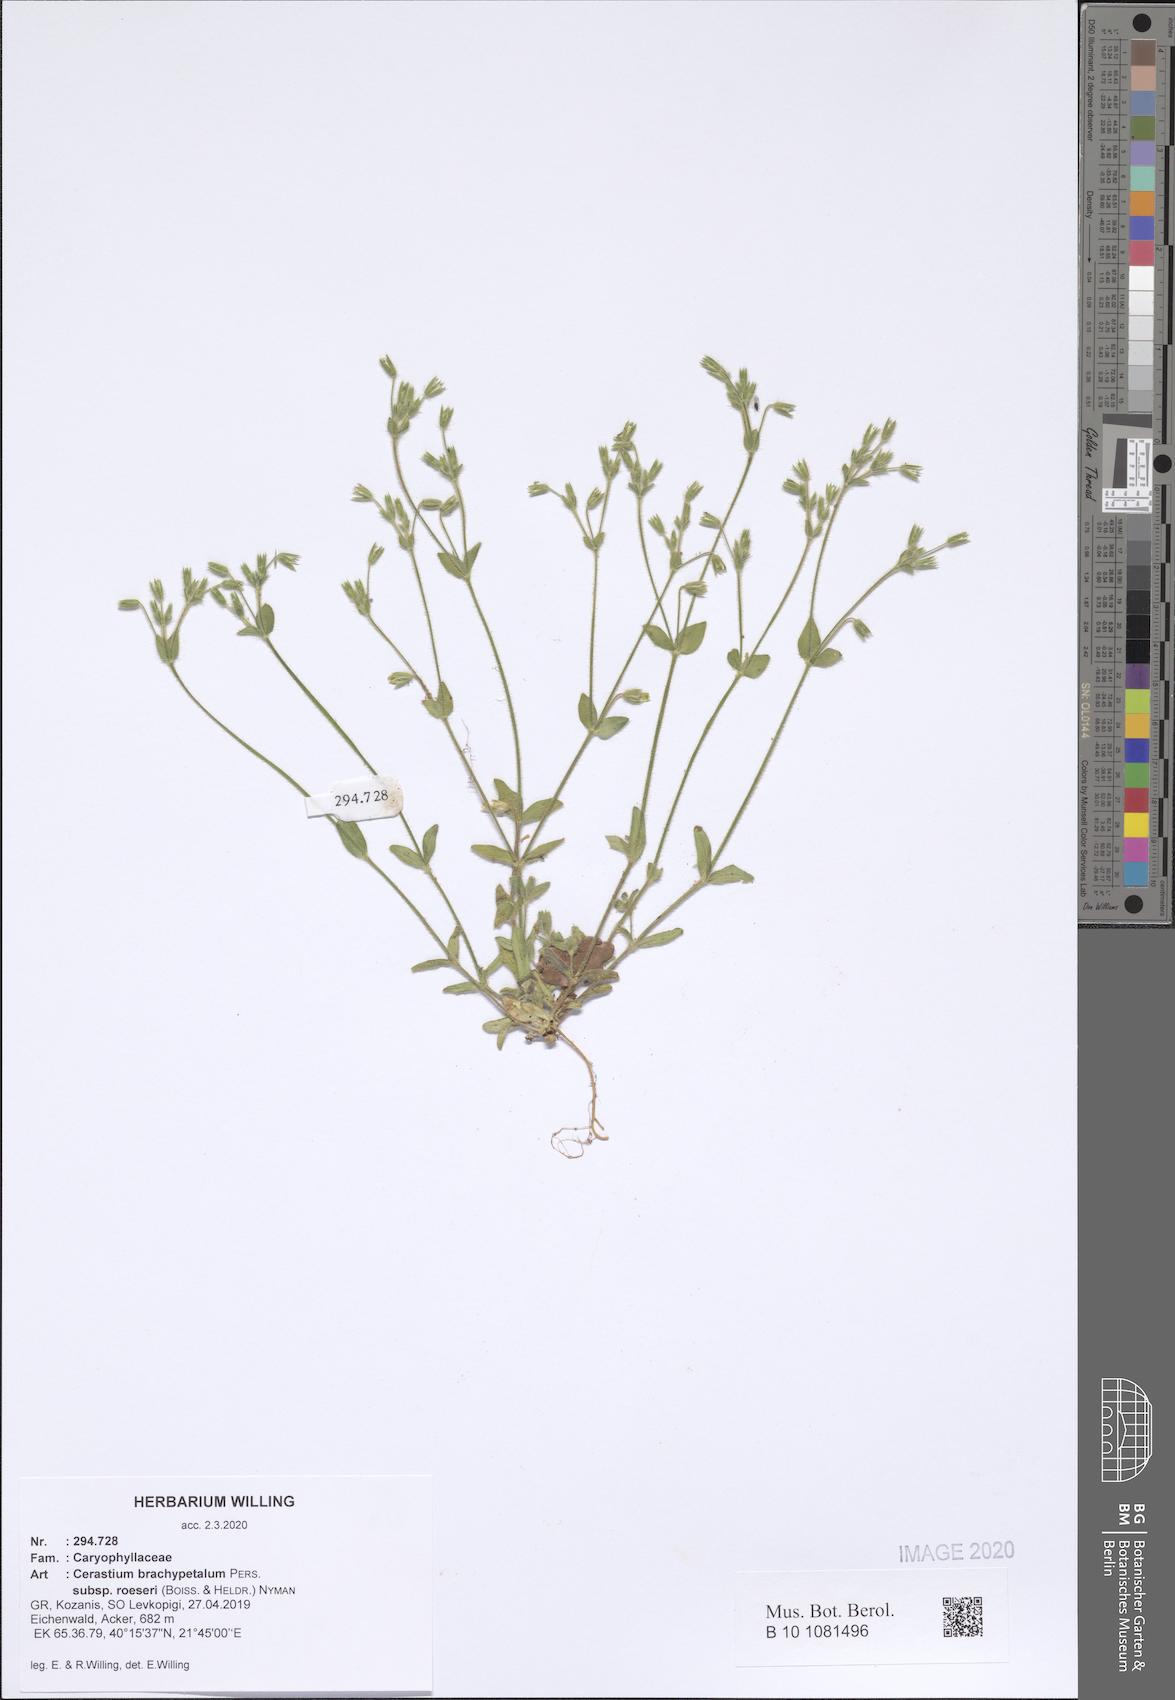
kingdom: Plantae
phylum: Tracheophyta
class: Magnoliopsida
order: Caryophyllales
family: Caryophyllaceae
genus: Cerastium
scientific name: Cerastium brachypetalum
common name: Grey mouse-ear
